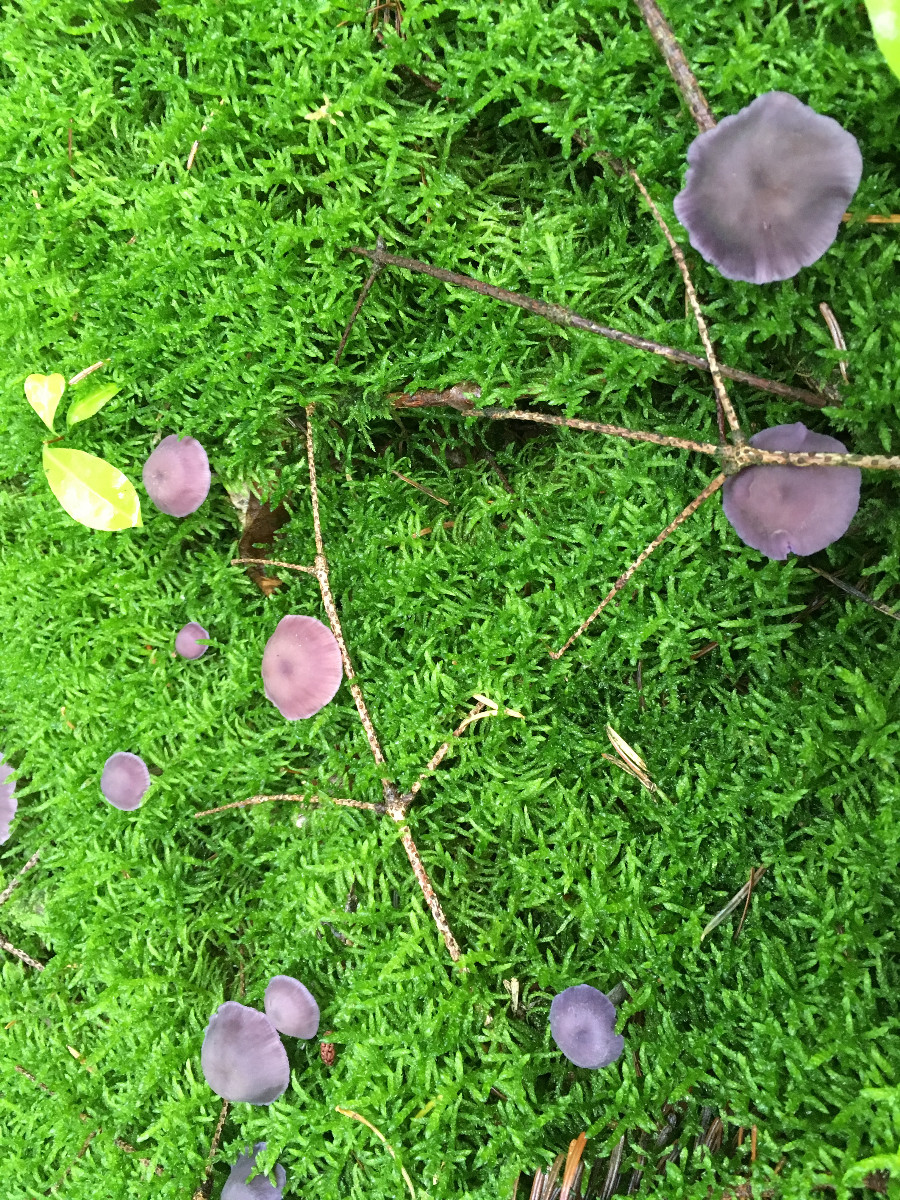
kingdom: Fungi
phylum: Basidiomycota
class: Agaricomycetes
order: Agaricales
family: Hydnangiaceae
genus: Laccaria
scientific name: Laccaria amethystina
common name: violet ametysthat
